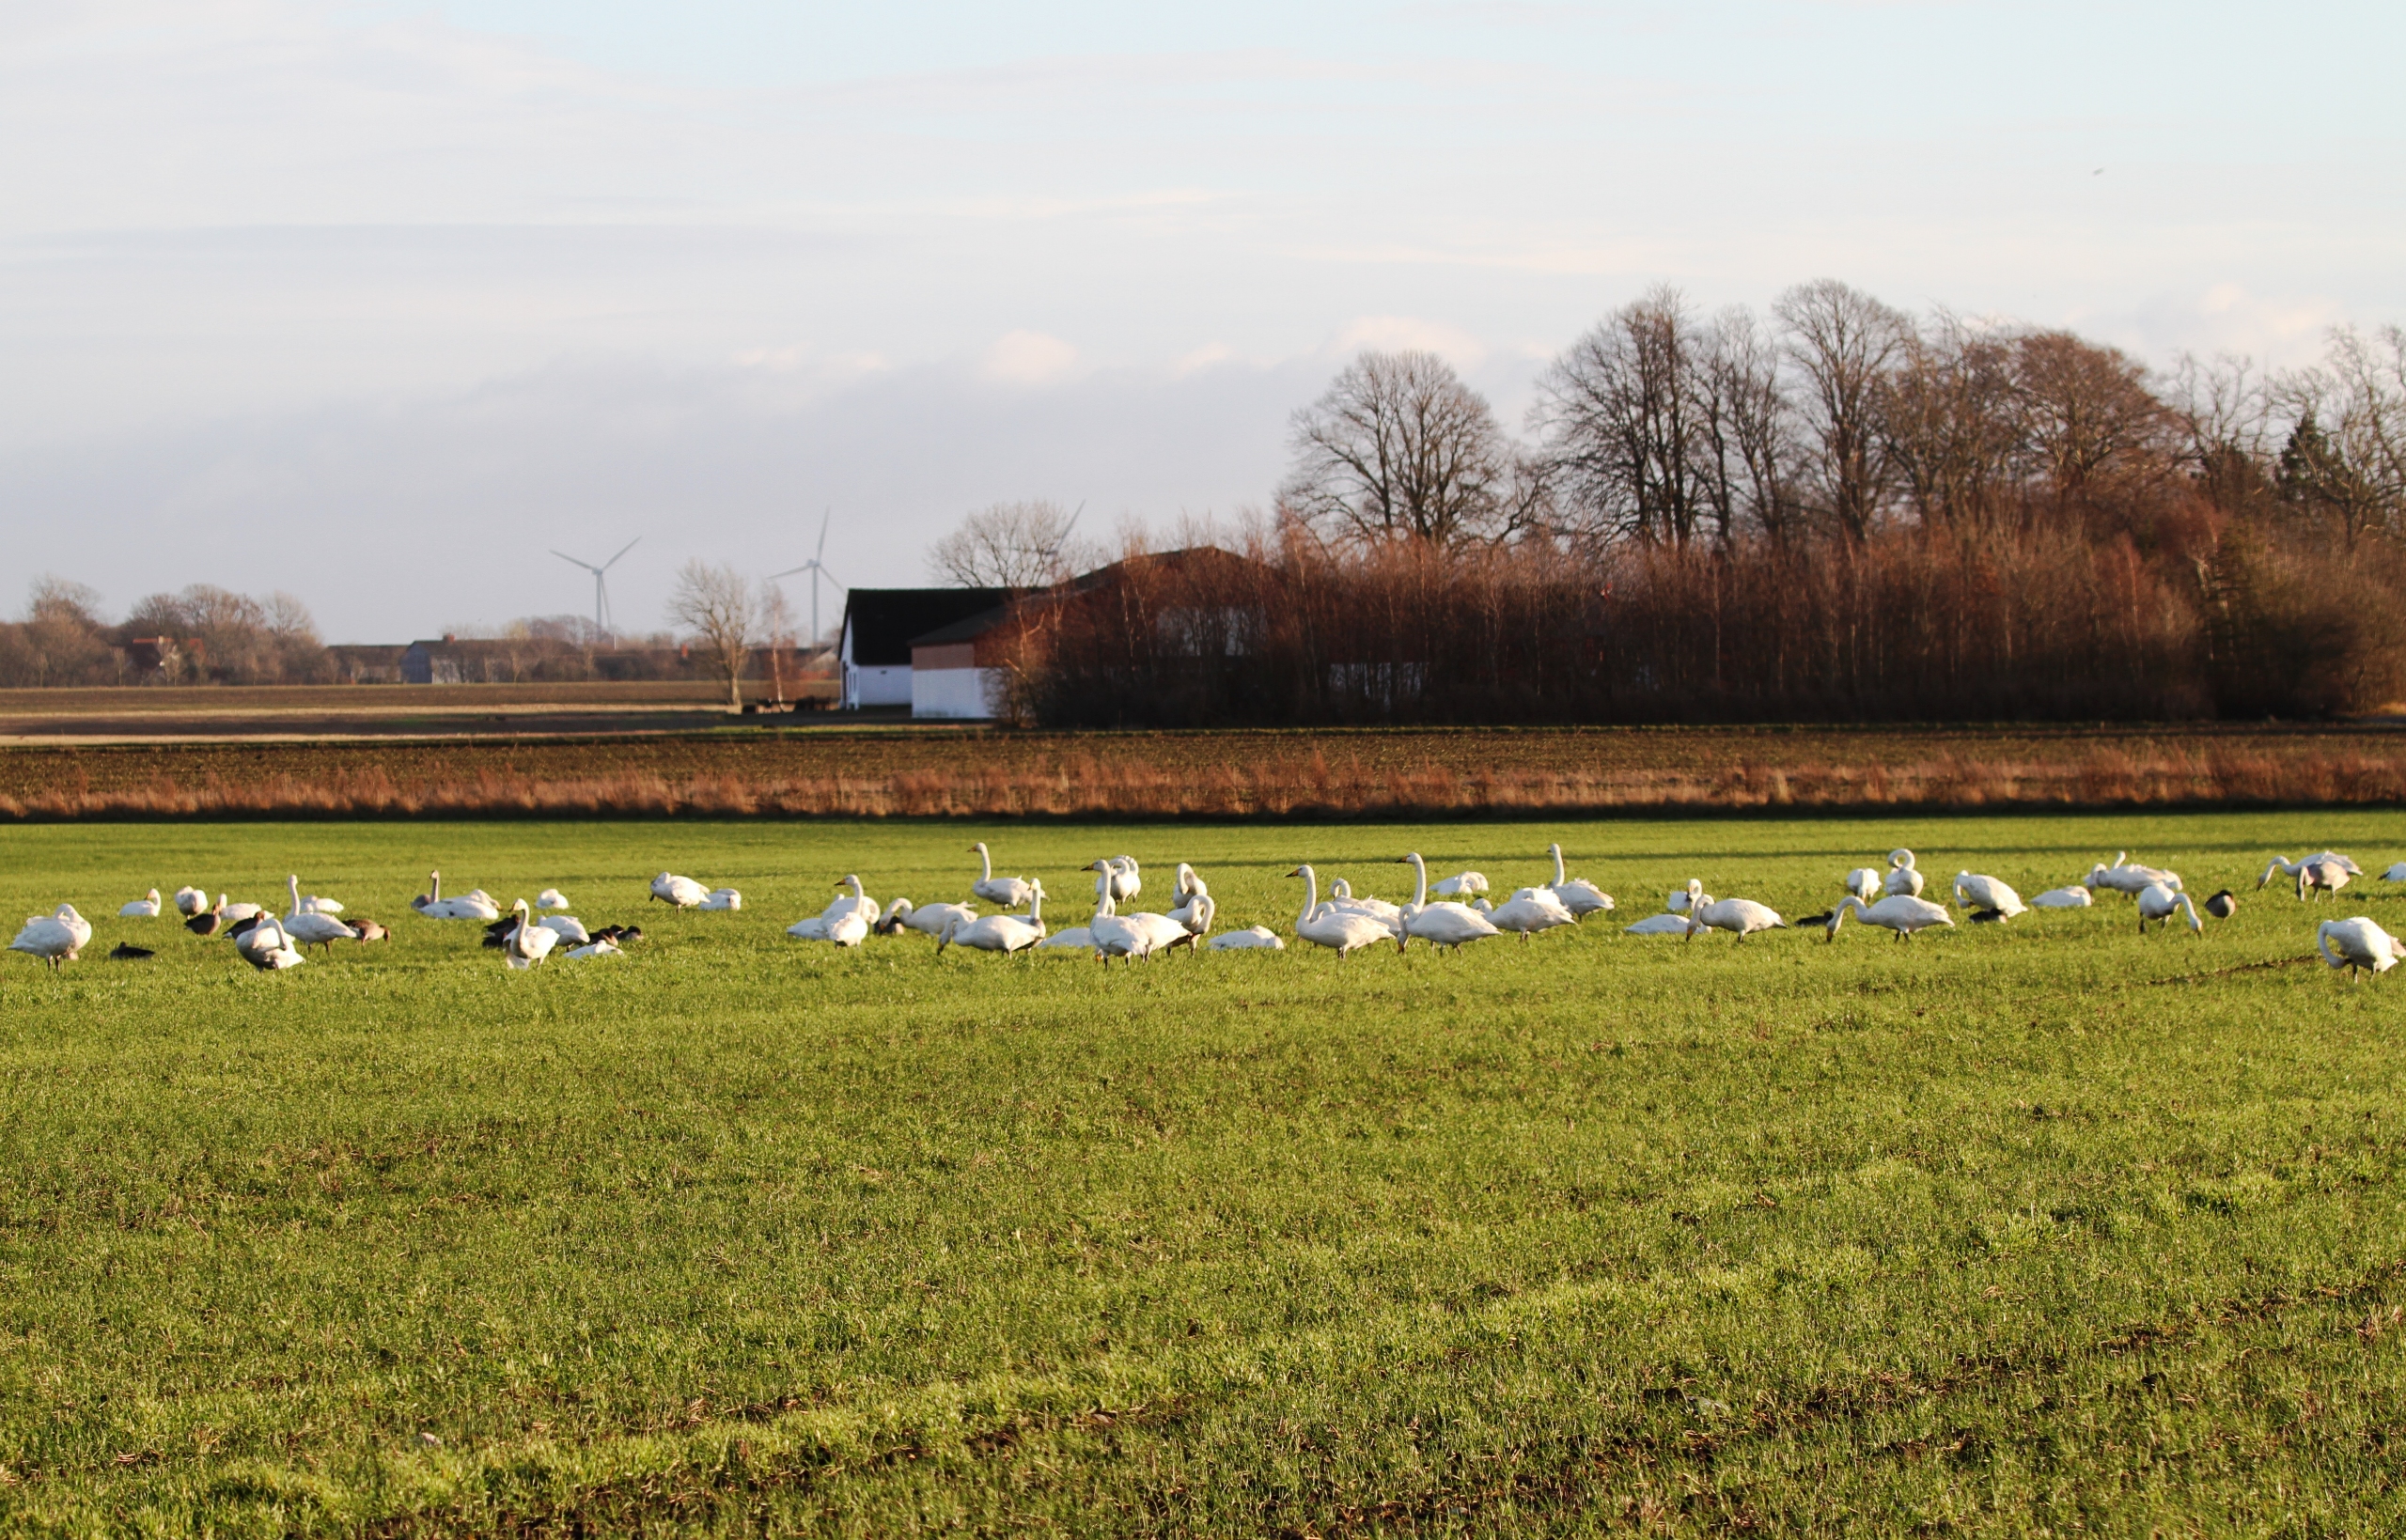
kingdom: Animalia
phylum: Chordata
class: Aves
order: Anseriformes
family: Anatidae
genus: Cygnus
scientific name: Cygnus cygnus
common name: Sangsvane
